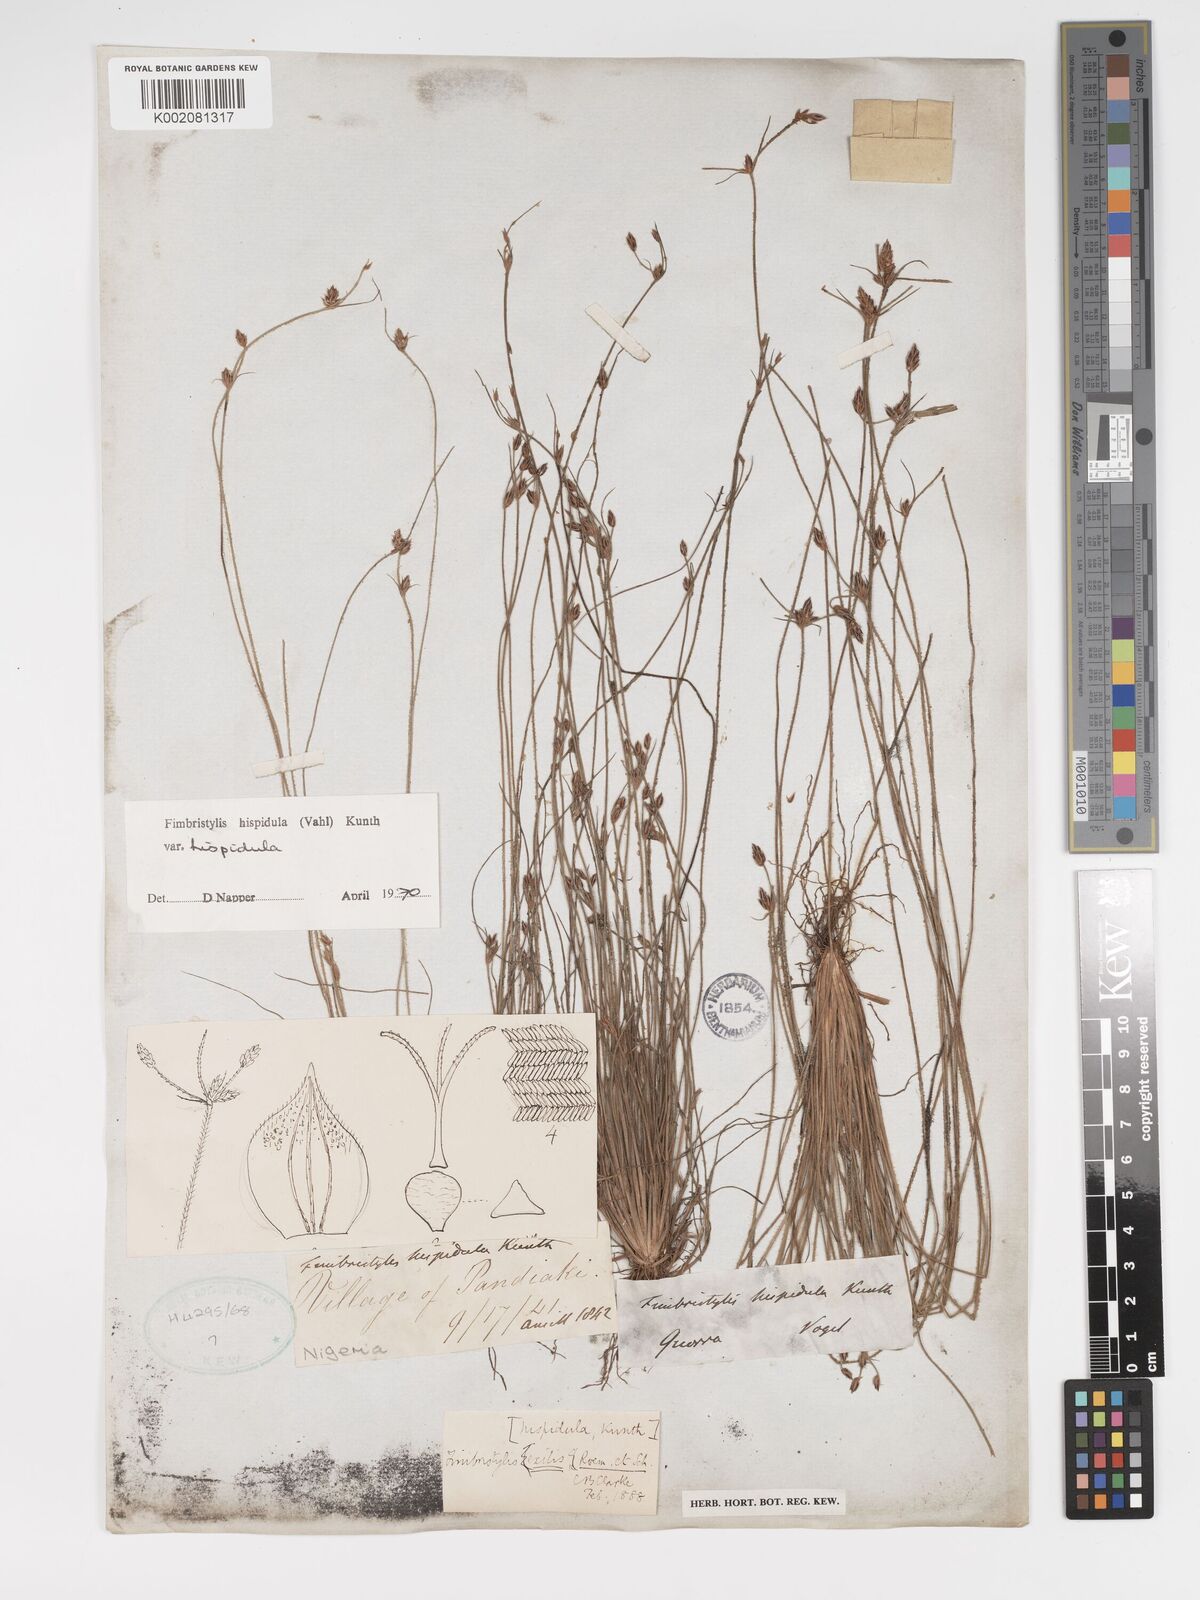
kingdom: Plantae
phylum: Tracheophyta
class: Liliopsida
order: Poales
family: Cyperaceae
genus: Bulbostylis
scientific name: Bulbostylis hispidula
